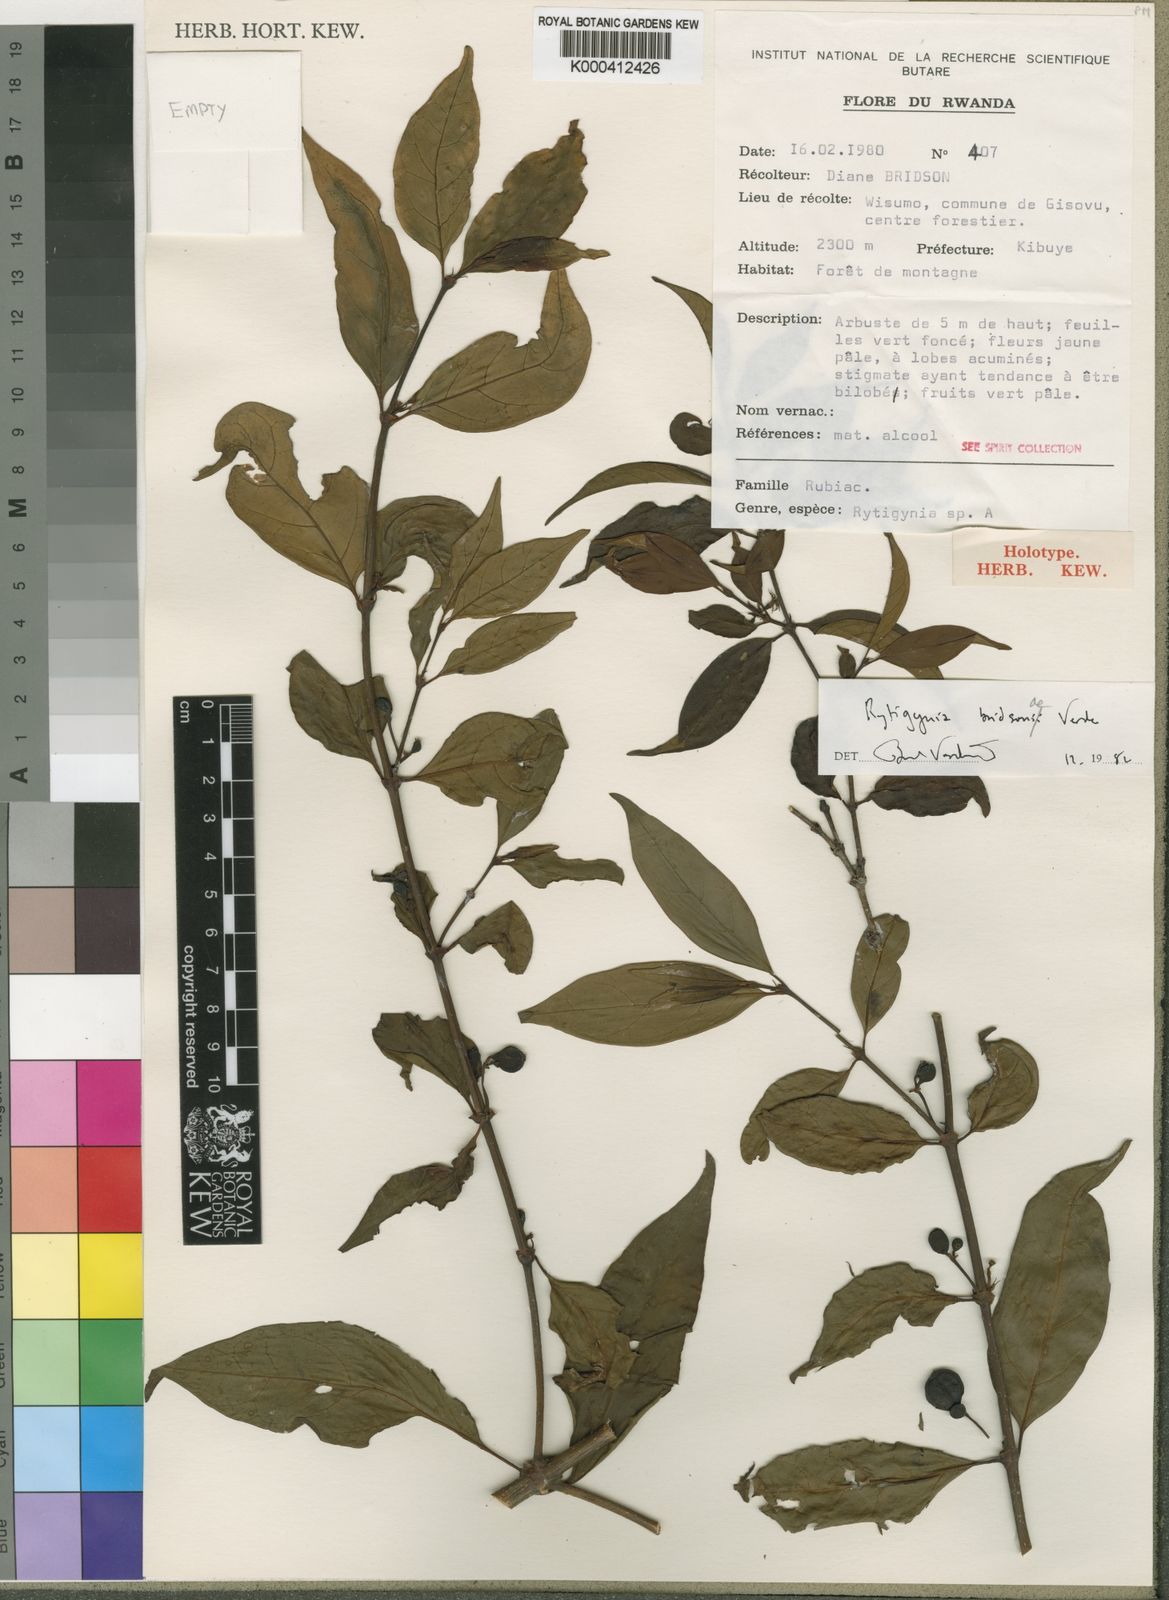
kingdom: Plantae
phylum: Tracheophyta
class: Magnoliopsida
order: Gentianales
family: Rubiaceae
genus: Rytigynia
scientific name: Rytigynia bridsoniae
